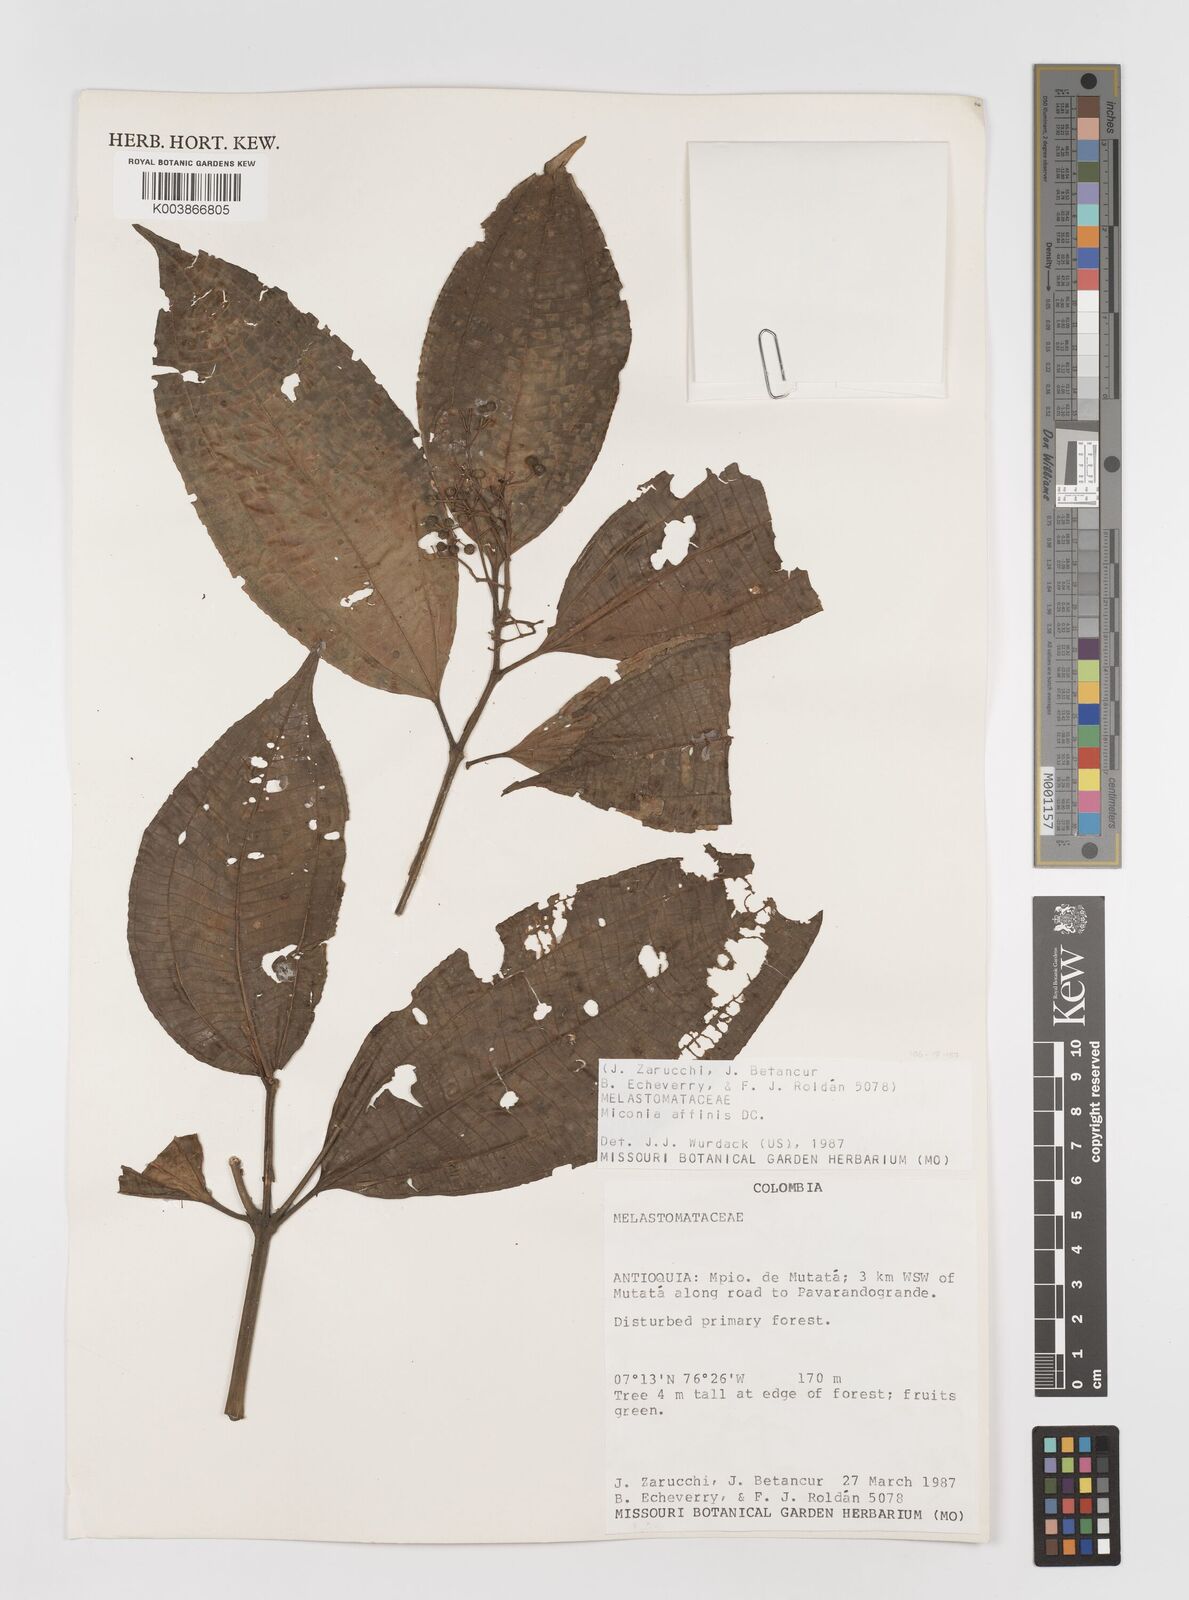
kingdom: Plantae
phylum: Tracheophyta
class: Magnoliopsida
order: Myrtales
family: Melastomataceae
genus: Miconia
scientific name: Miconia
